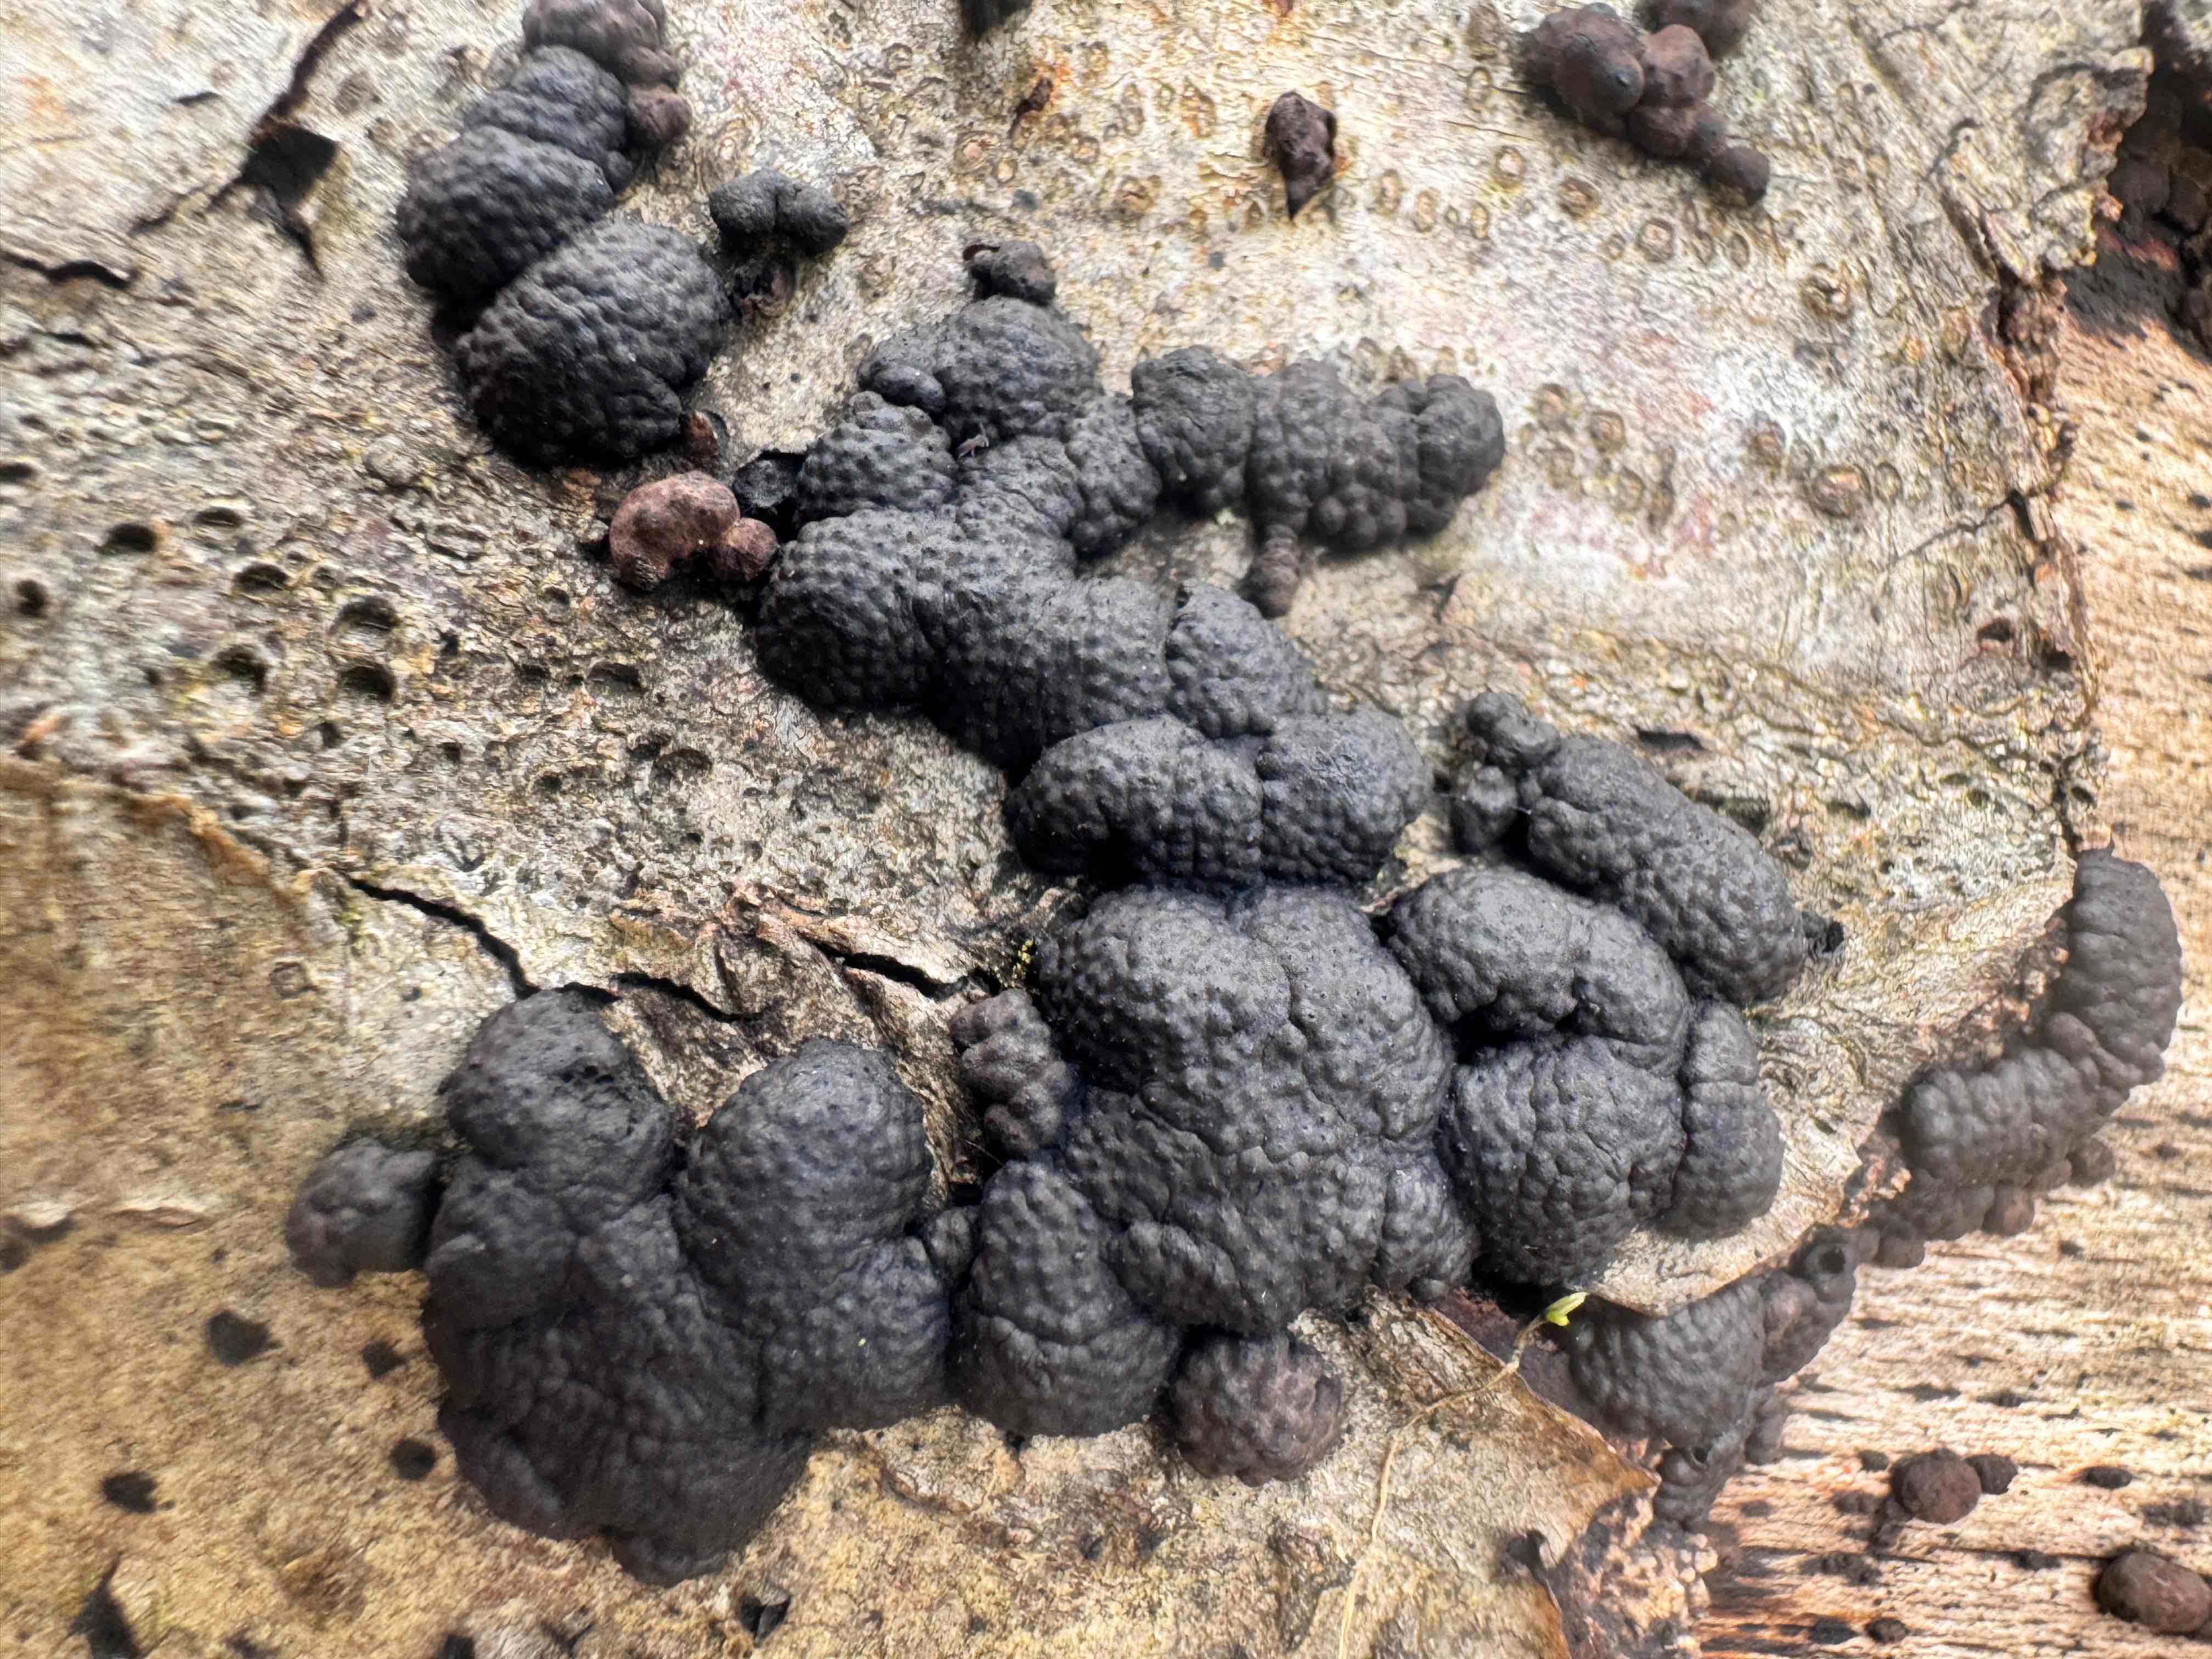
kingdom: Fungi
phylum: Ascomycota
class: Sordariomycetes
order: Xylariales
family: Hypoxylaceae
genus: Jackrogersella
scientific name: Jackrogersella cohaerens
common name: sammenflydende kulbær
